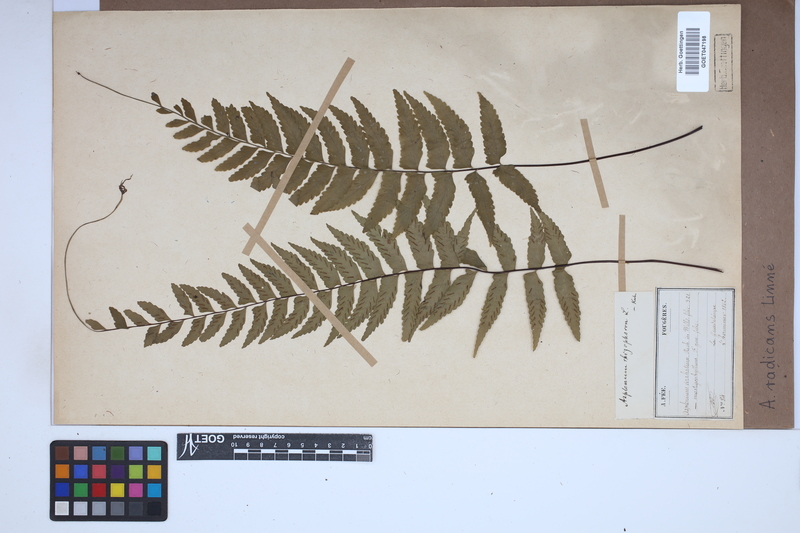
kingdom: Plantae
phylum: Tracheophyta
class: Polypodiopsida
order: Polypodiales
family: Aspleniaceae
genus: Asplenium
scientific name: Asplenium radicans
